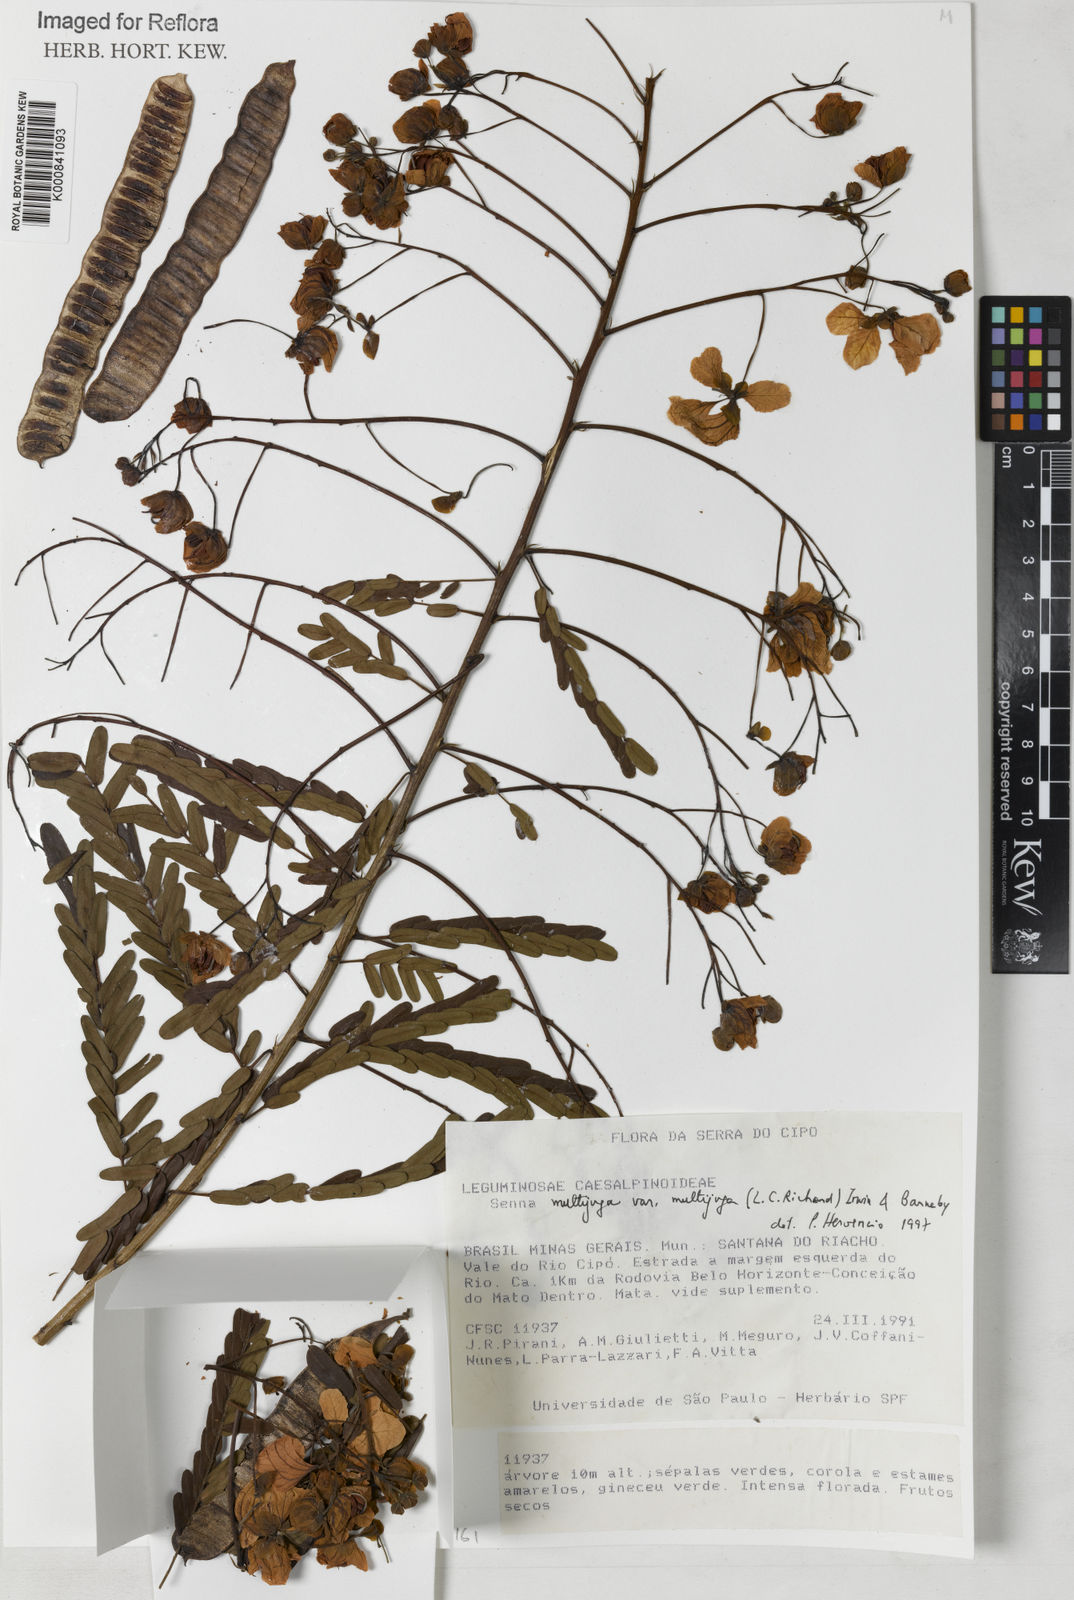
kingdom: Plantae
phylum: Tracheophyta
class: Magnoliopsida
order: Fabales
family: Fabaceae
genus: Senna
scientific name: Senna multijuga
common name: False sicklepod
